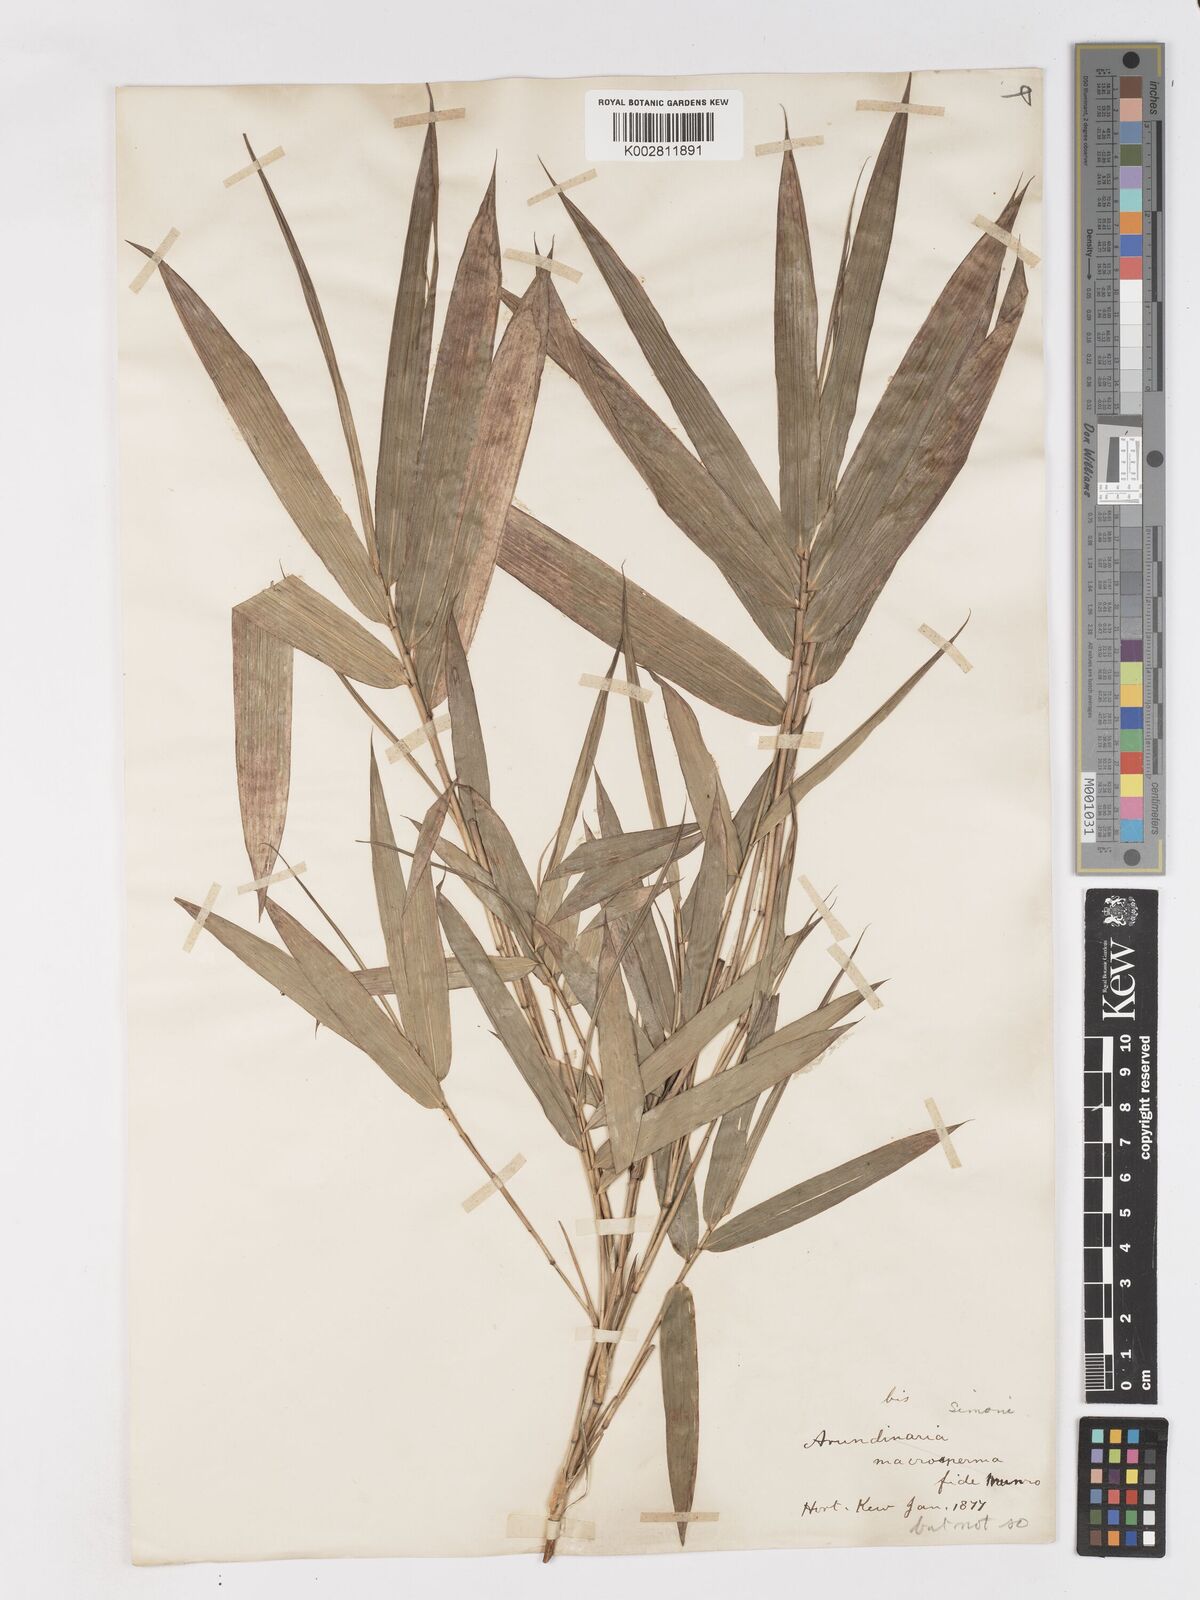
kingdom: Plantae
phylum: Tracheophyta
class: Liliopsida
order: Poales
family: Poaceae
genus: Pleioblastus
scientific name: Pleioblastus simonii
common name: Simon bamboo
